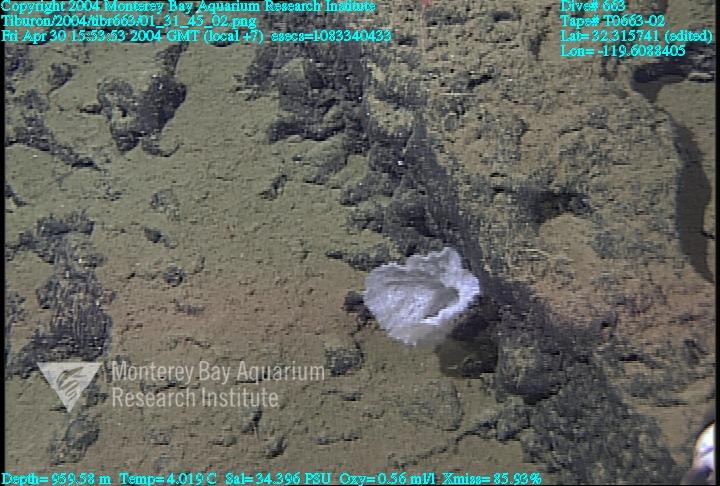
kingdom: Animalia
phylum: Porifera
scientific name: Porifera
